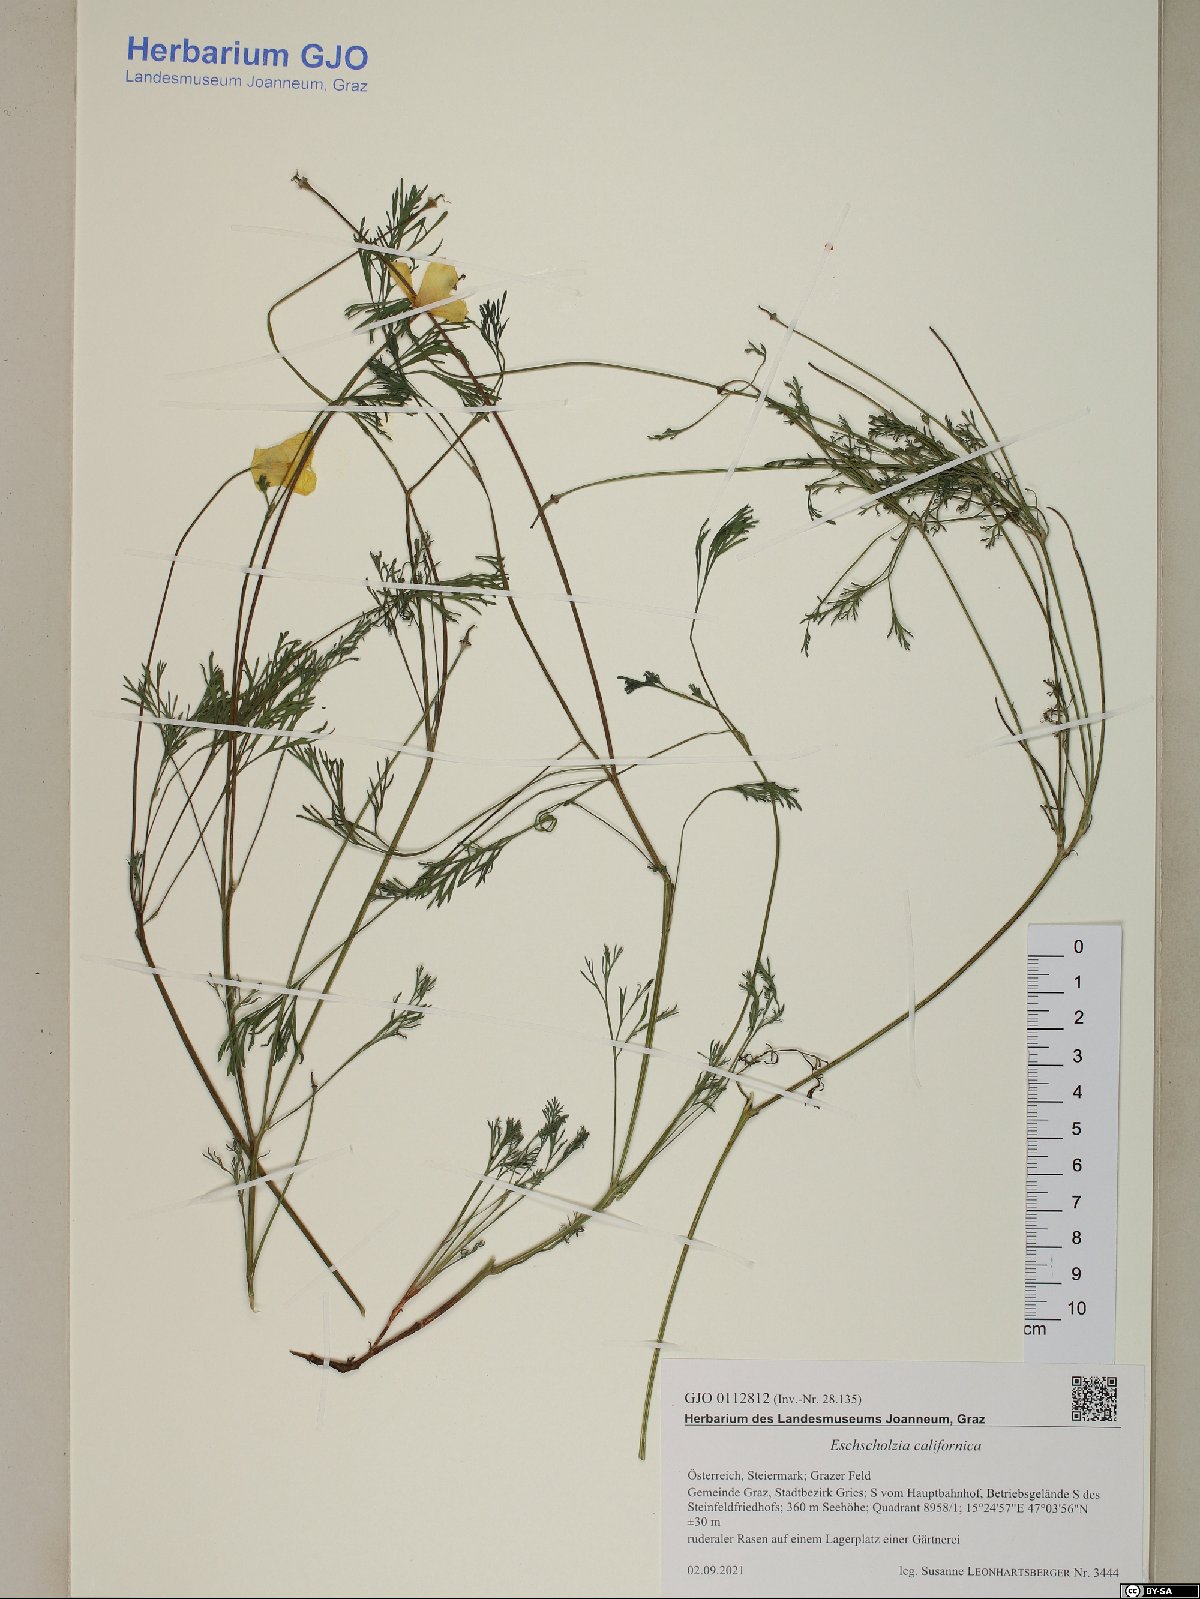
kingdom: Plantae
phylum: Tracheophyta
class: Magnoliopsida
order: Ranunculales
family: Papaveraceae
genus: Eschscholzia
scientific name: Eschscholzia californica
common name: California poppy
